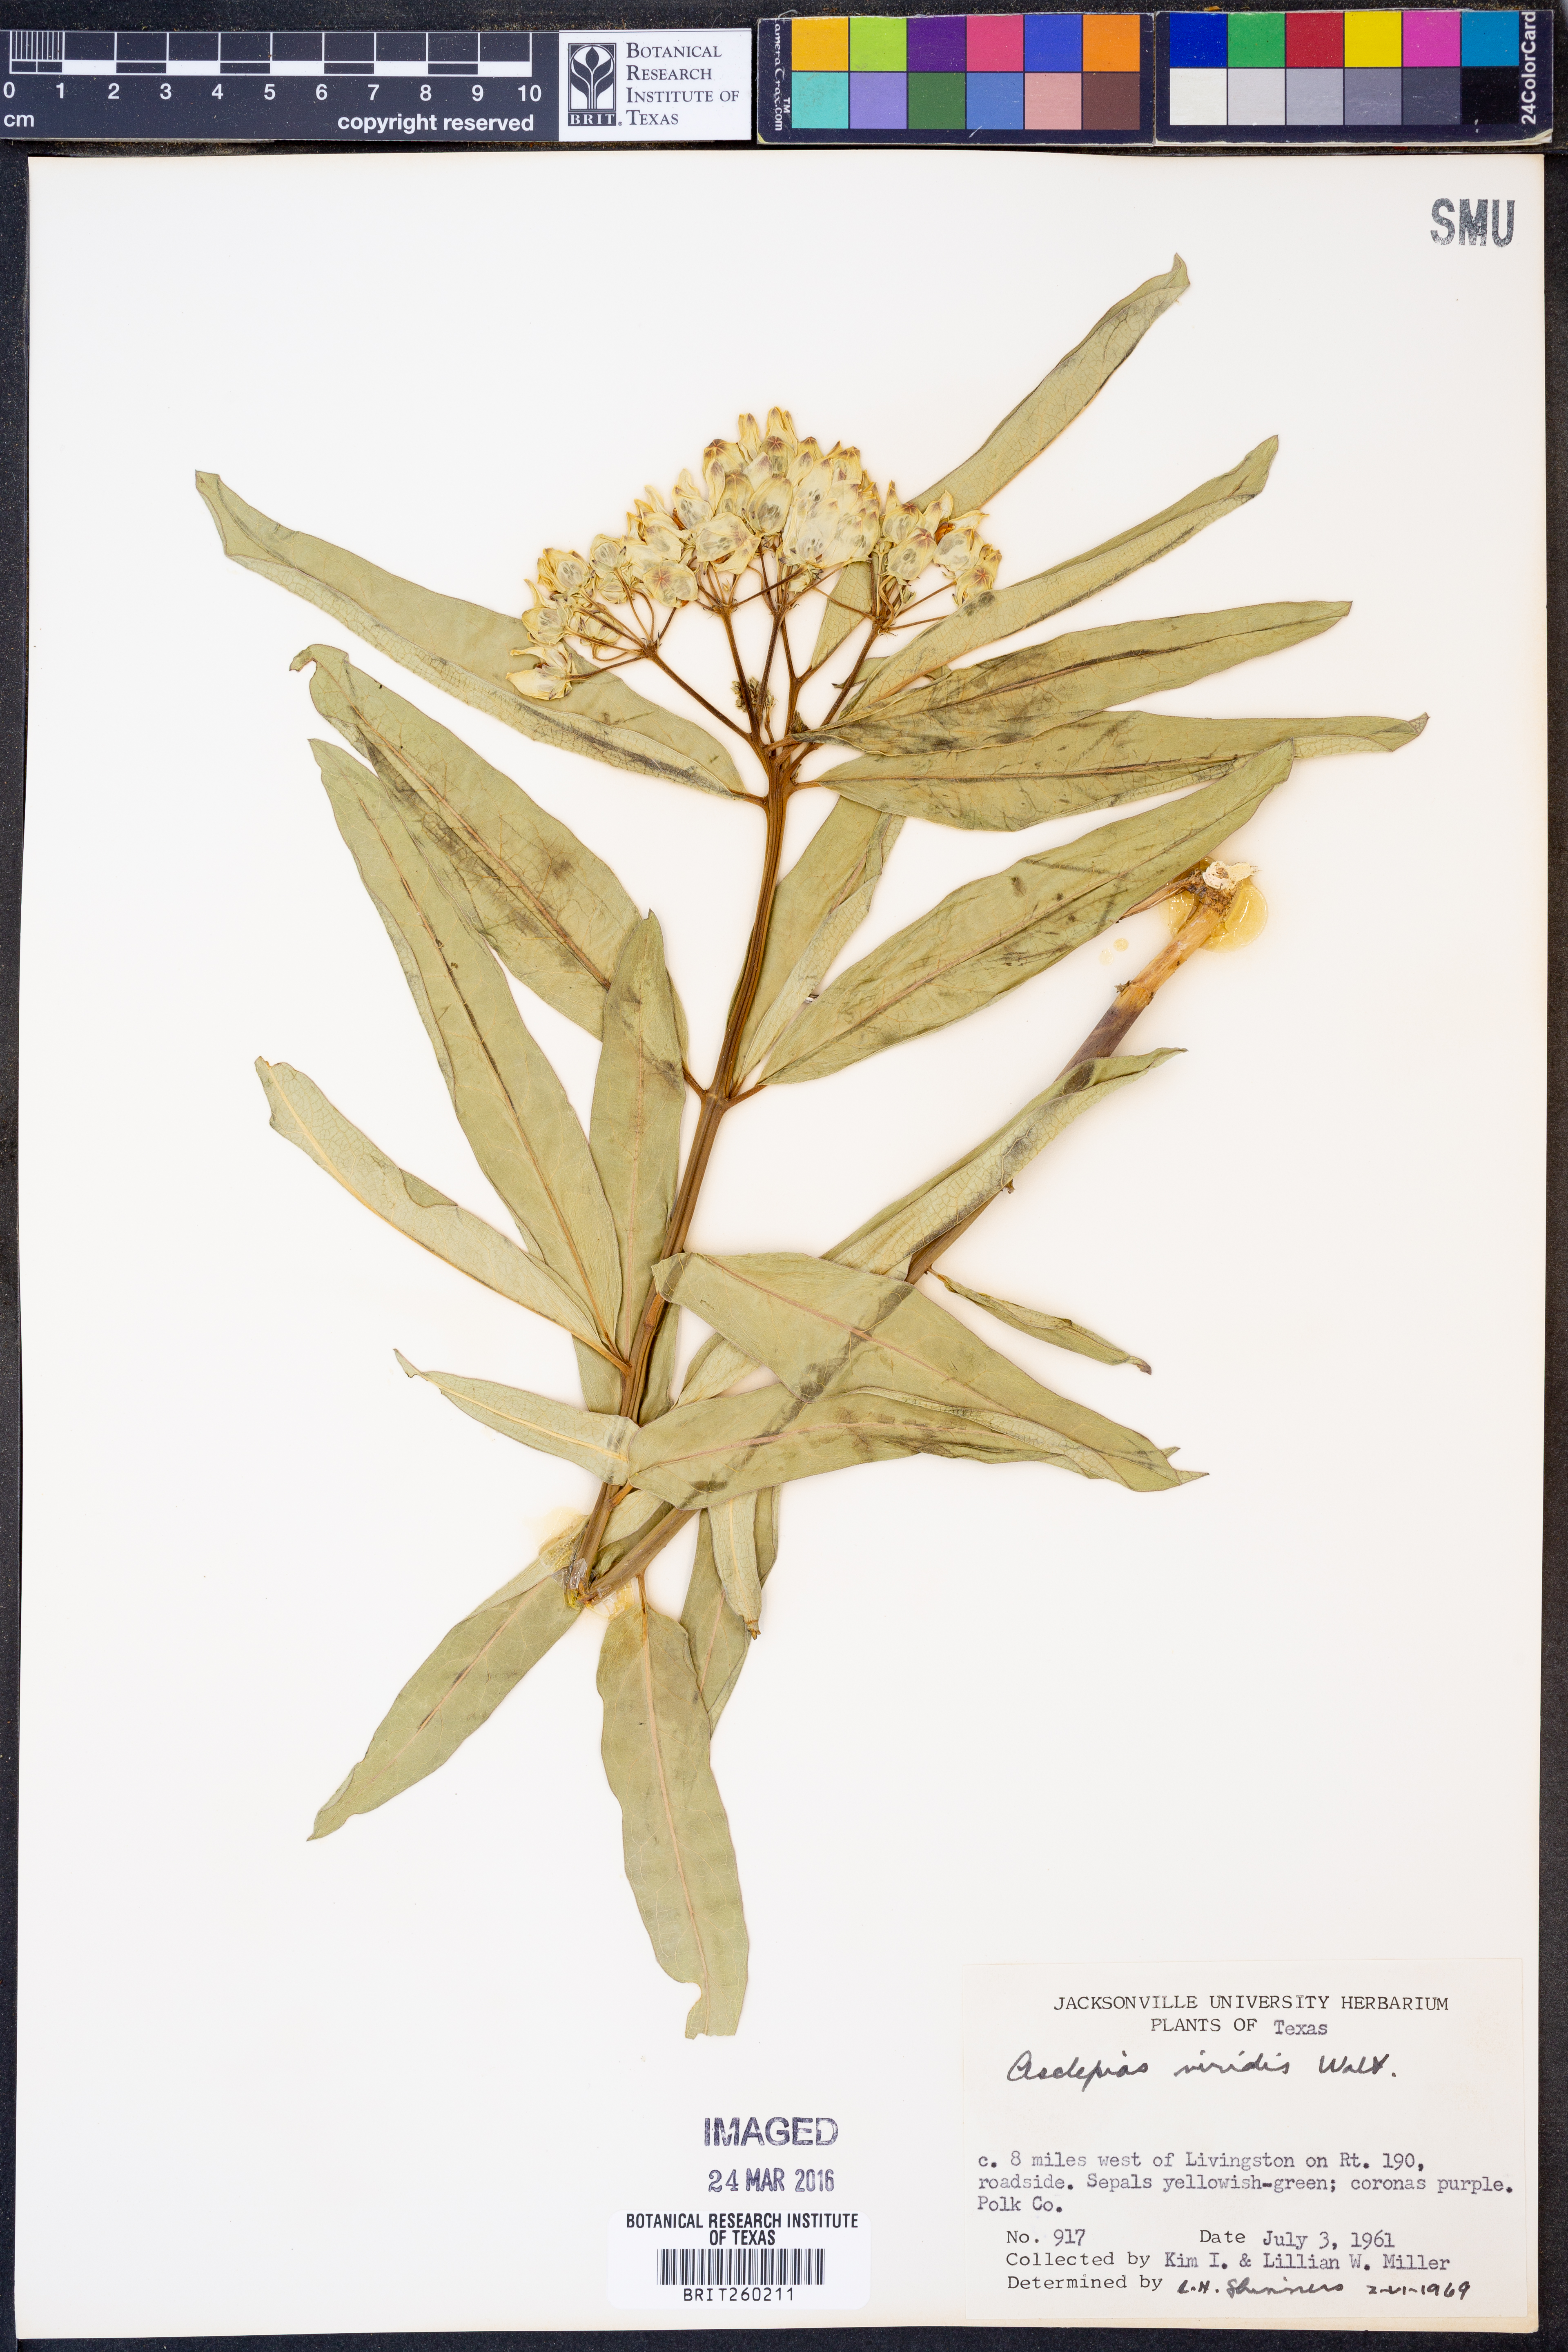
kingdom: Plantae
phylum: Tracheophyta
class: Magnoliopsida
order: Gentianales
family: Apocynaceae
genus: Asclepias
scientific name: Asclepias viridis
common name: Antelope-horns
